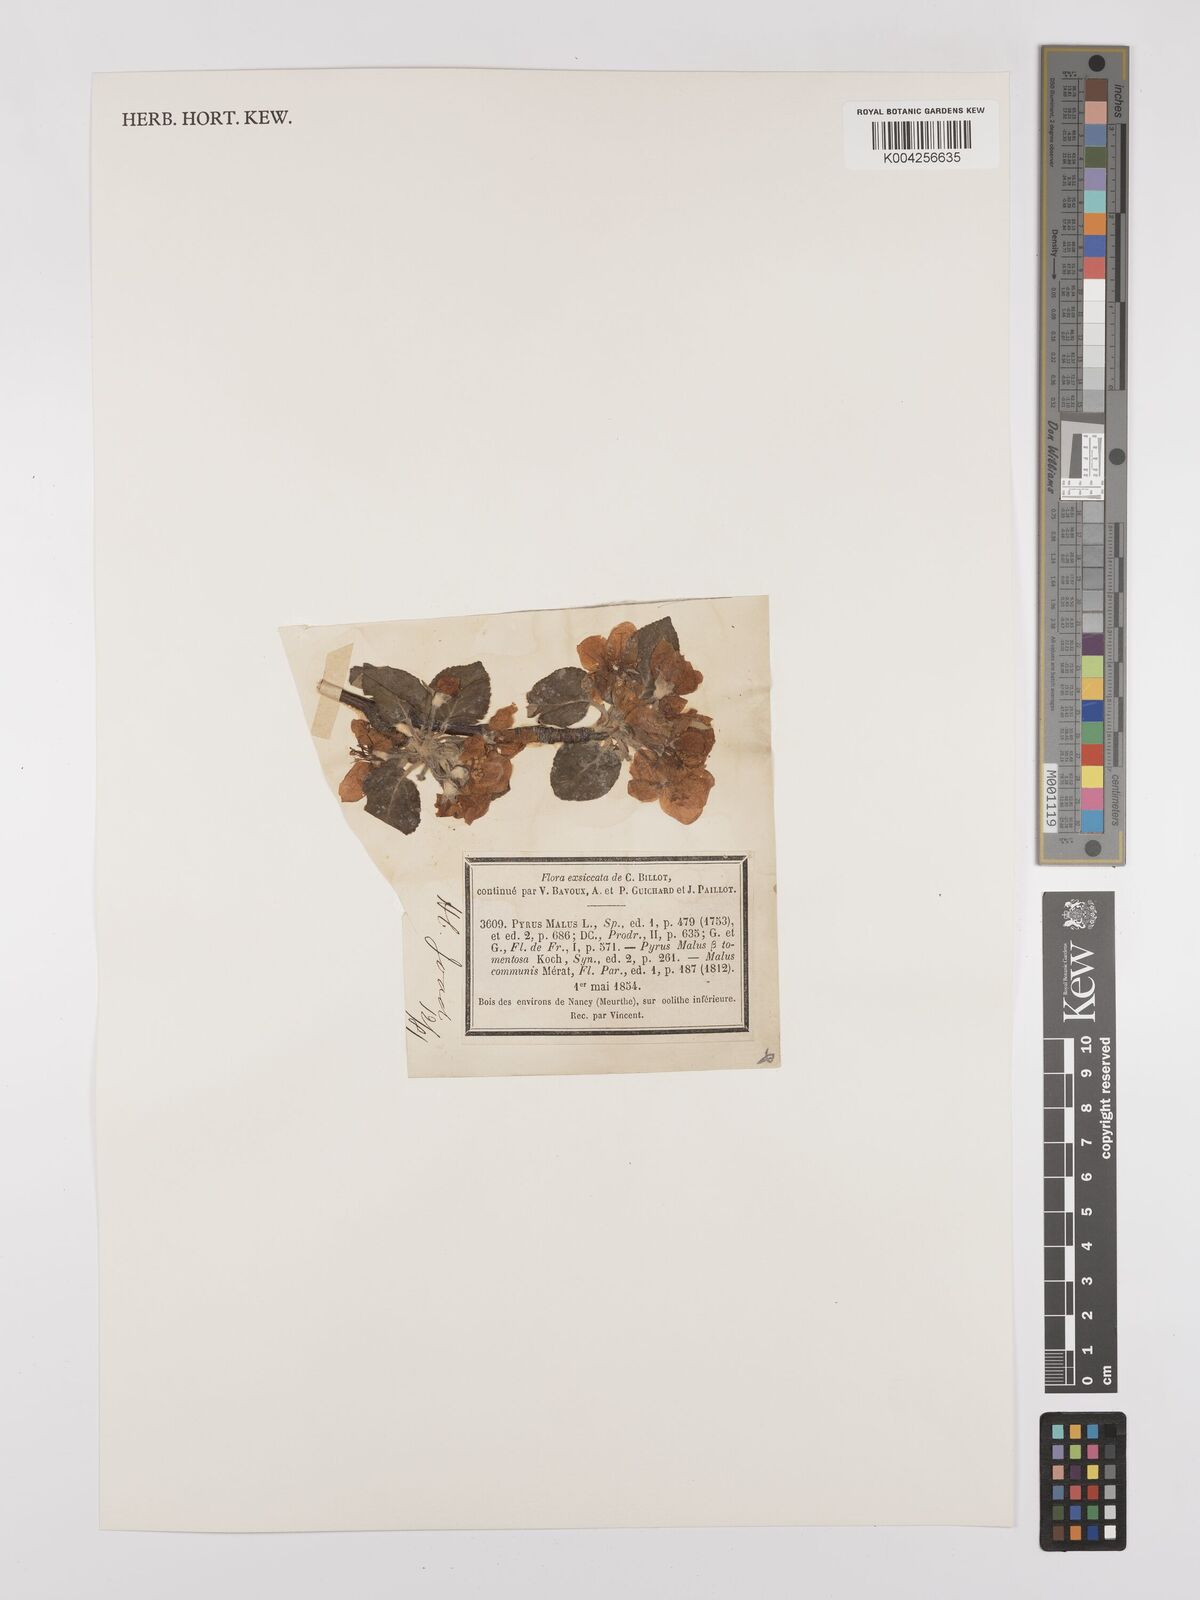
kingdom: Plantae
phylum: Tracheophyta
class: Magnoliopsida
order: Rosales
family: Rosaceae
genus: Malus
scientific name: Malus domestica
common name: Apple
